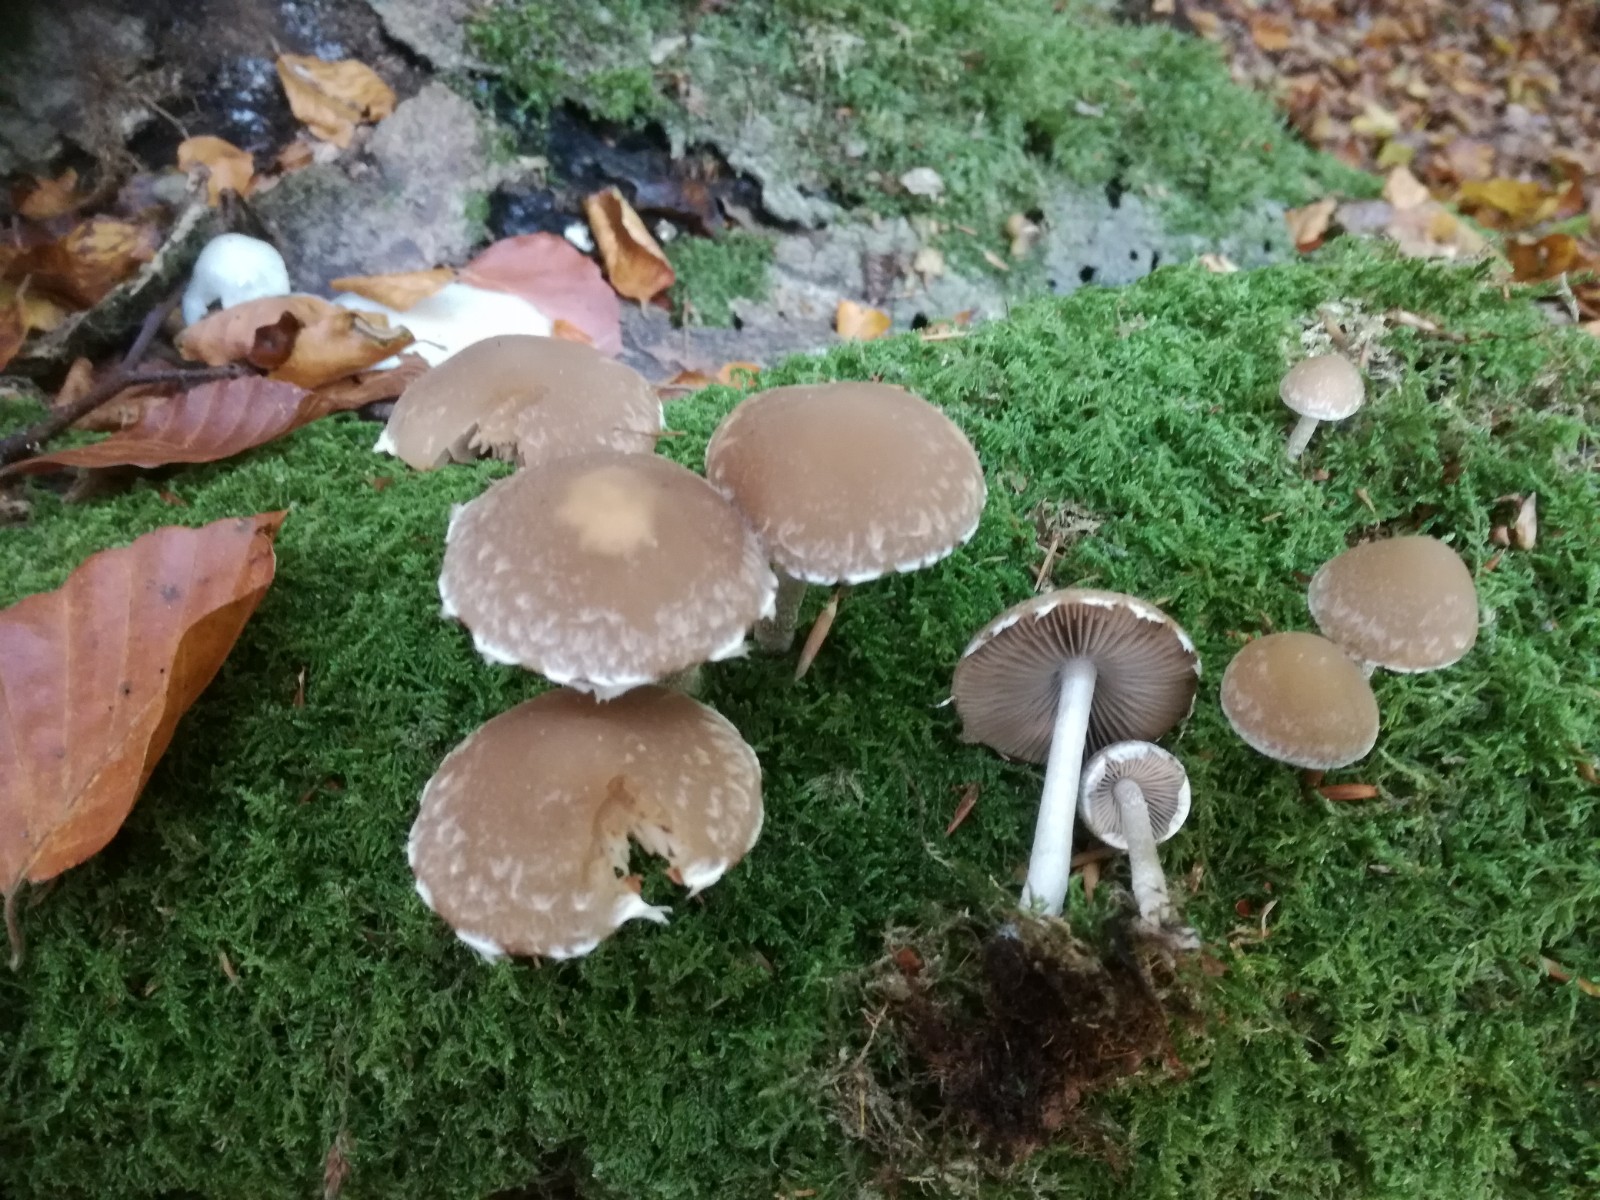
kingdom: Fungi
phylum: Basidiomycota
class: Agaricomycetes
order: Agaricales
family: Psathyrellaceae
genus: Psathyrella
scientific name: Psathyrella spintrigeroides
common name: tandet mørkhat
